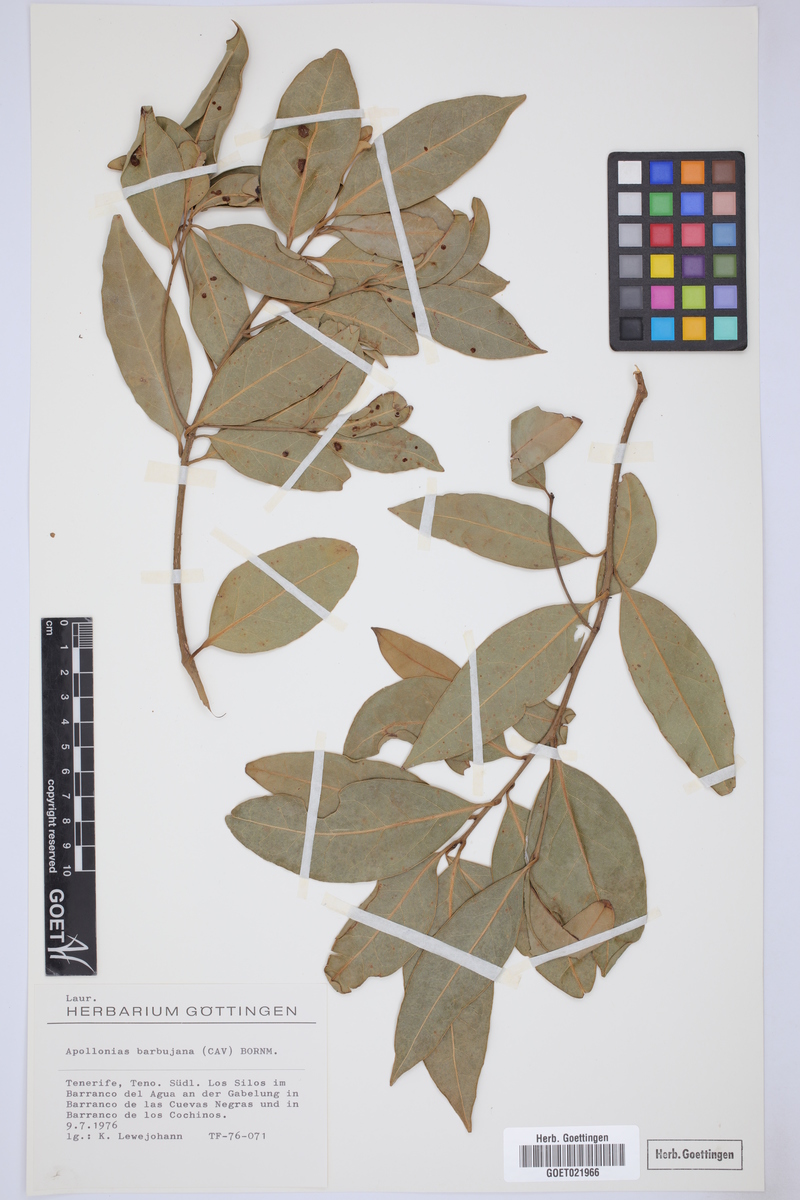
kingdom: Plantae
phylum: Tracheophyta
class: Magnoliopsida
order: Laurales
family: Lauraceae
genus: Apollonias
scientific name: Apollonias barbujana
